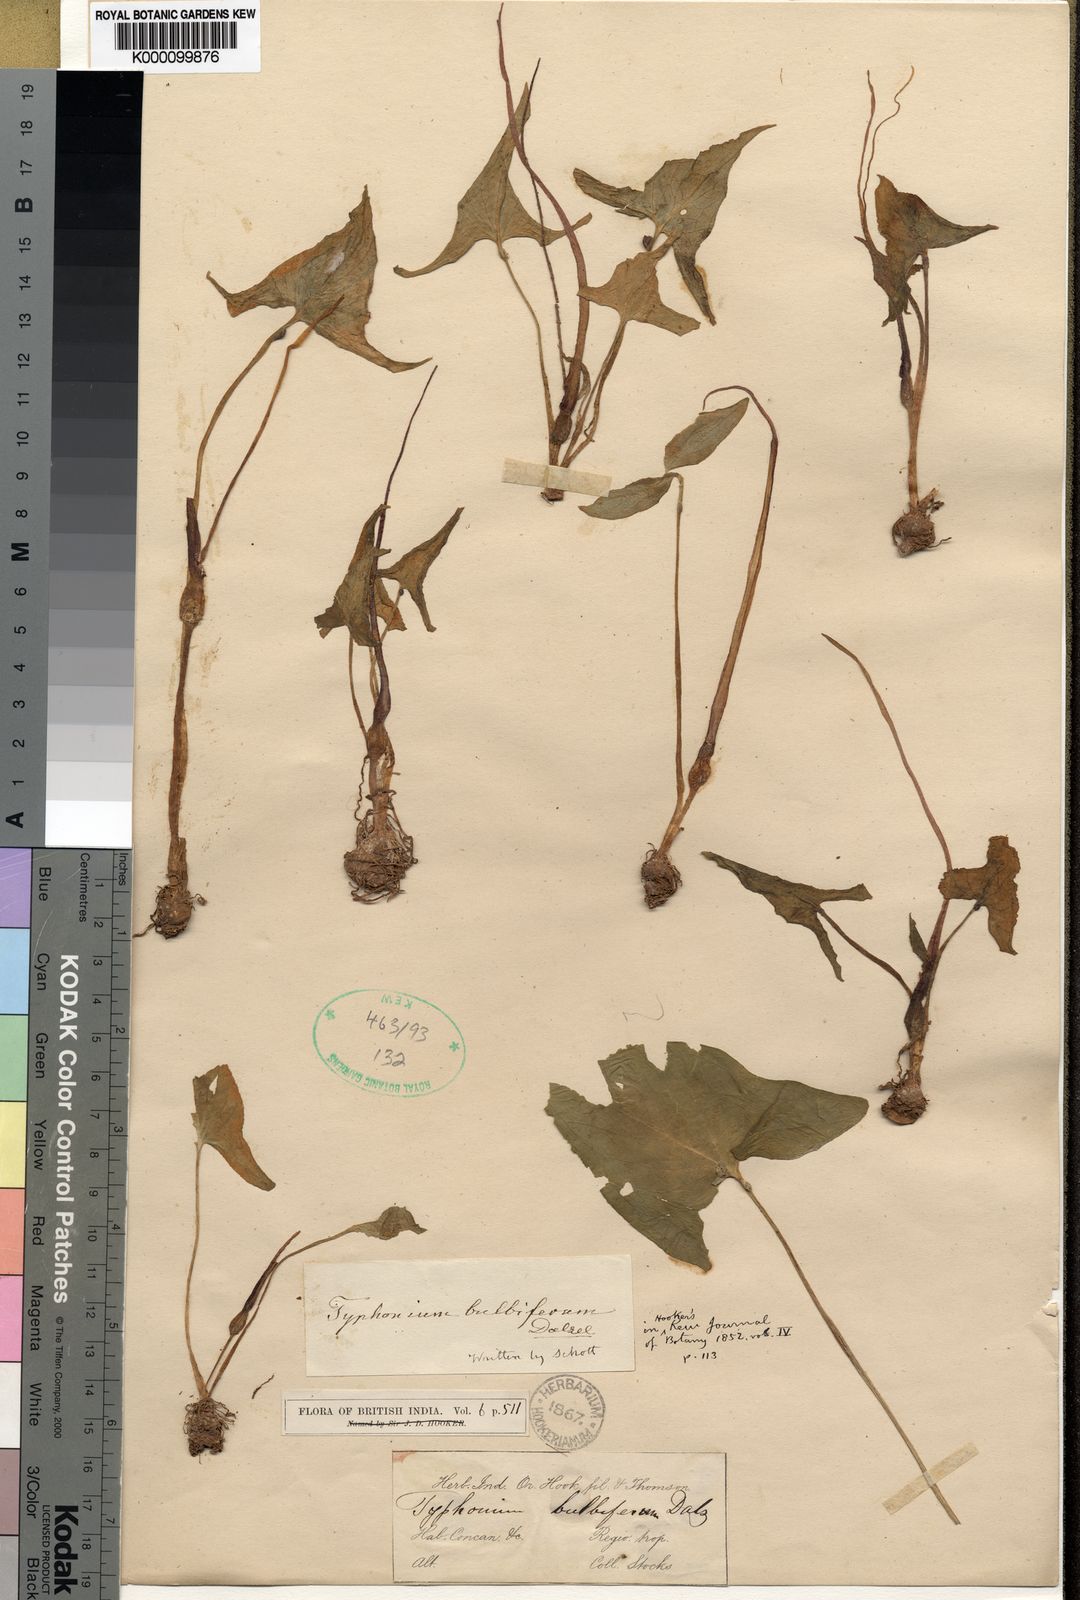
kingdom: Plantae
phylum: Tracheophyta
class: Liliopsida
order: Alismatales
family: Araceae
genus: Typhonium
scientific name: Typhonium bulbiferum
